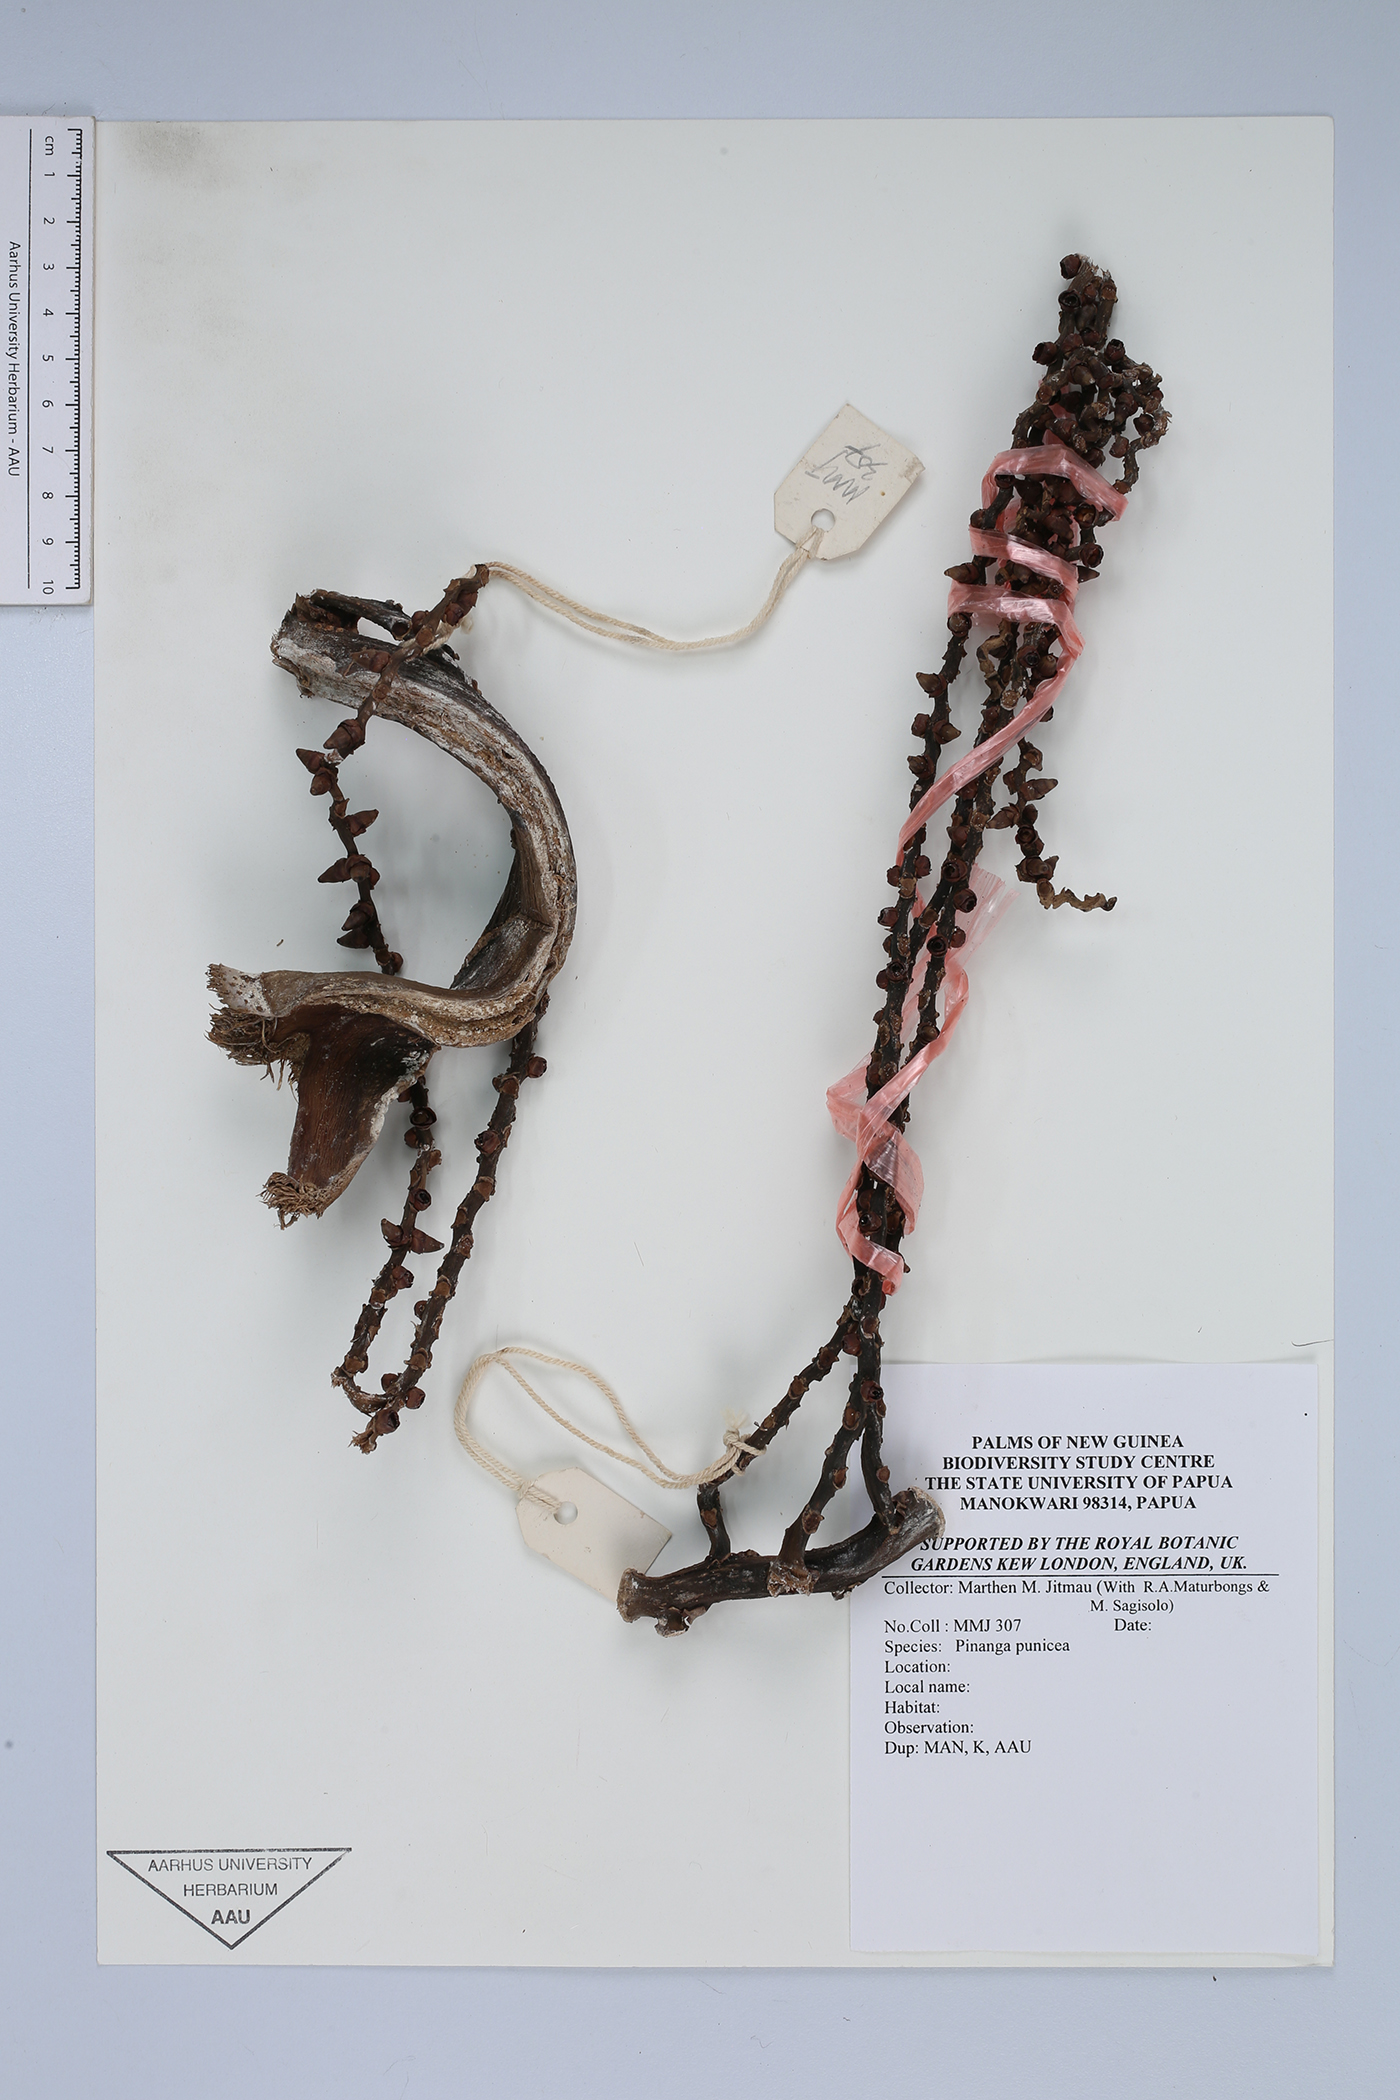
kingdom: Plantae
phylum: Tracheophyta
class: Liliopsida
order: Arecales
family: Arecaceae
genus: Pinanga
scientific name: Pinanga rumphiana
